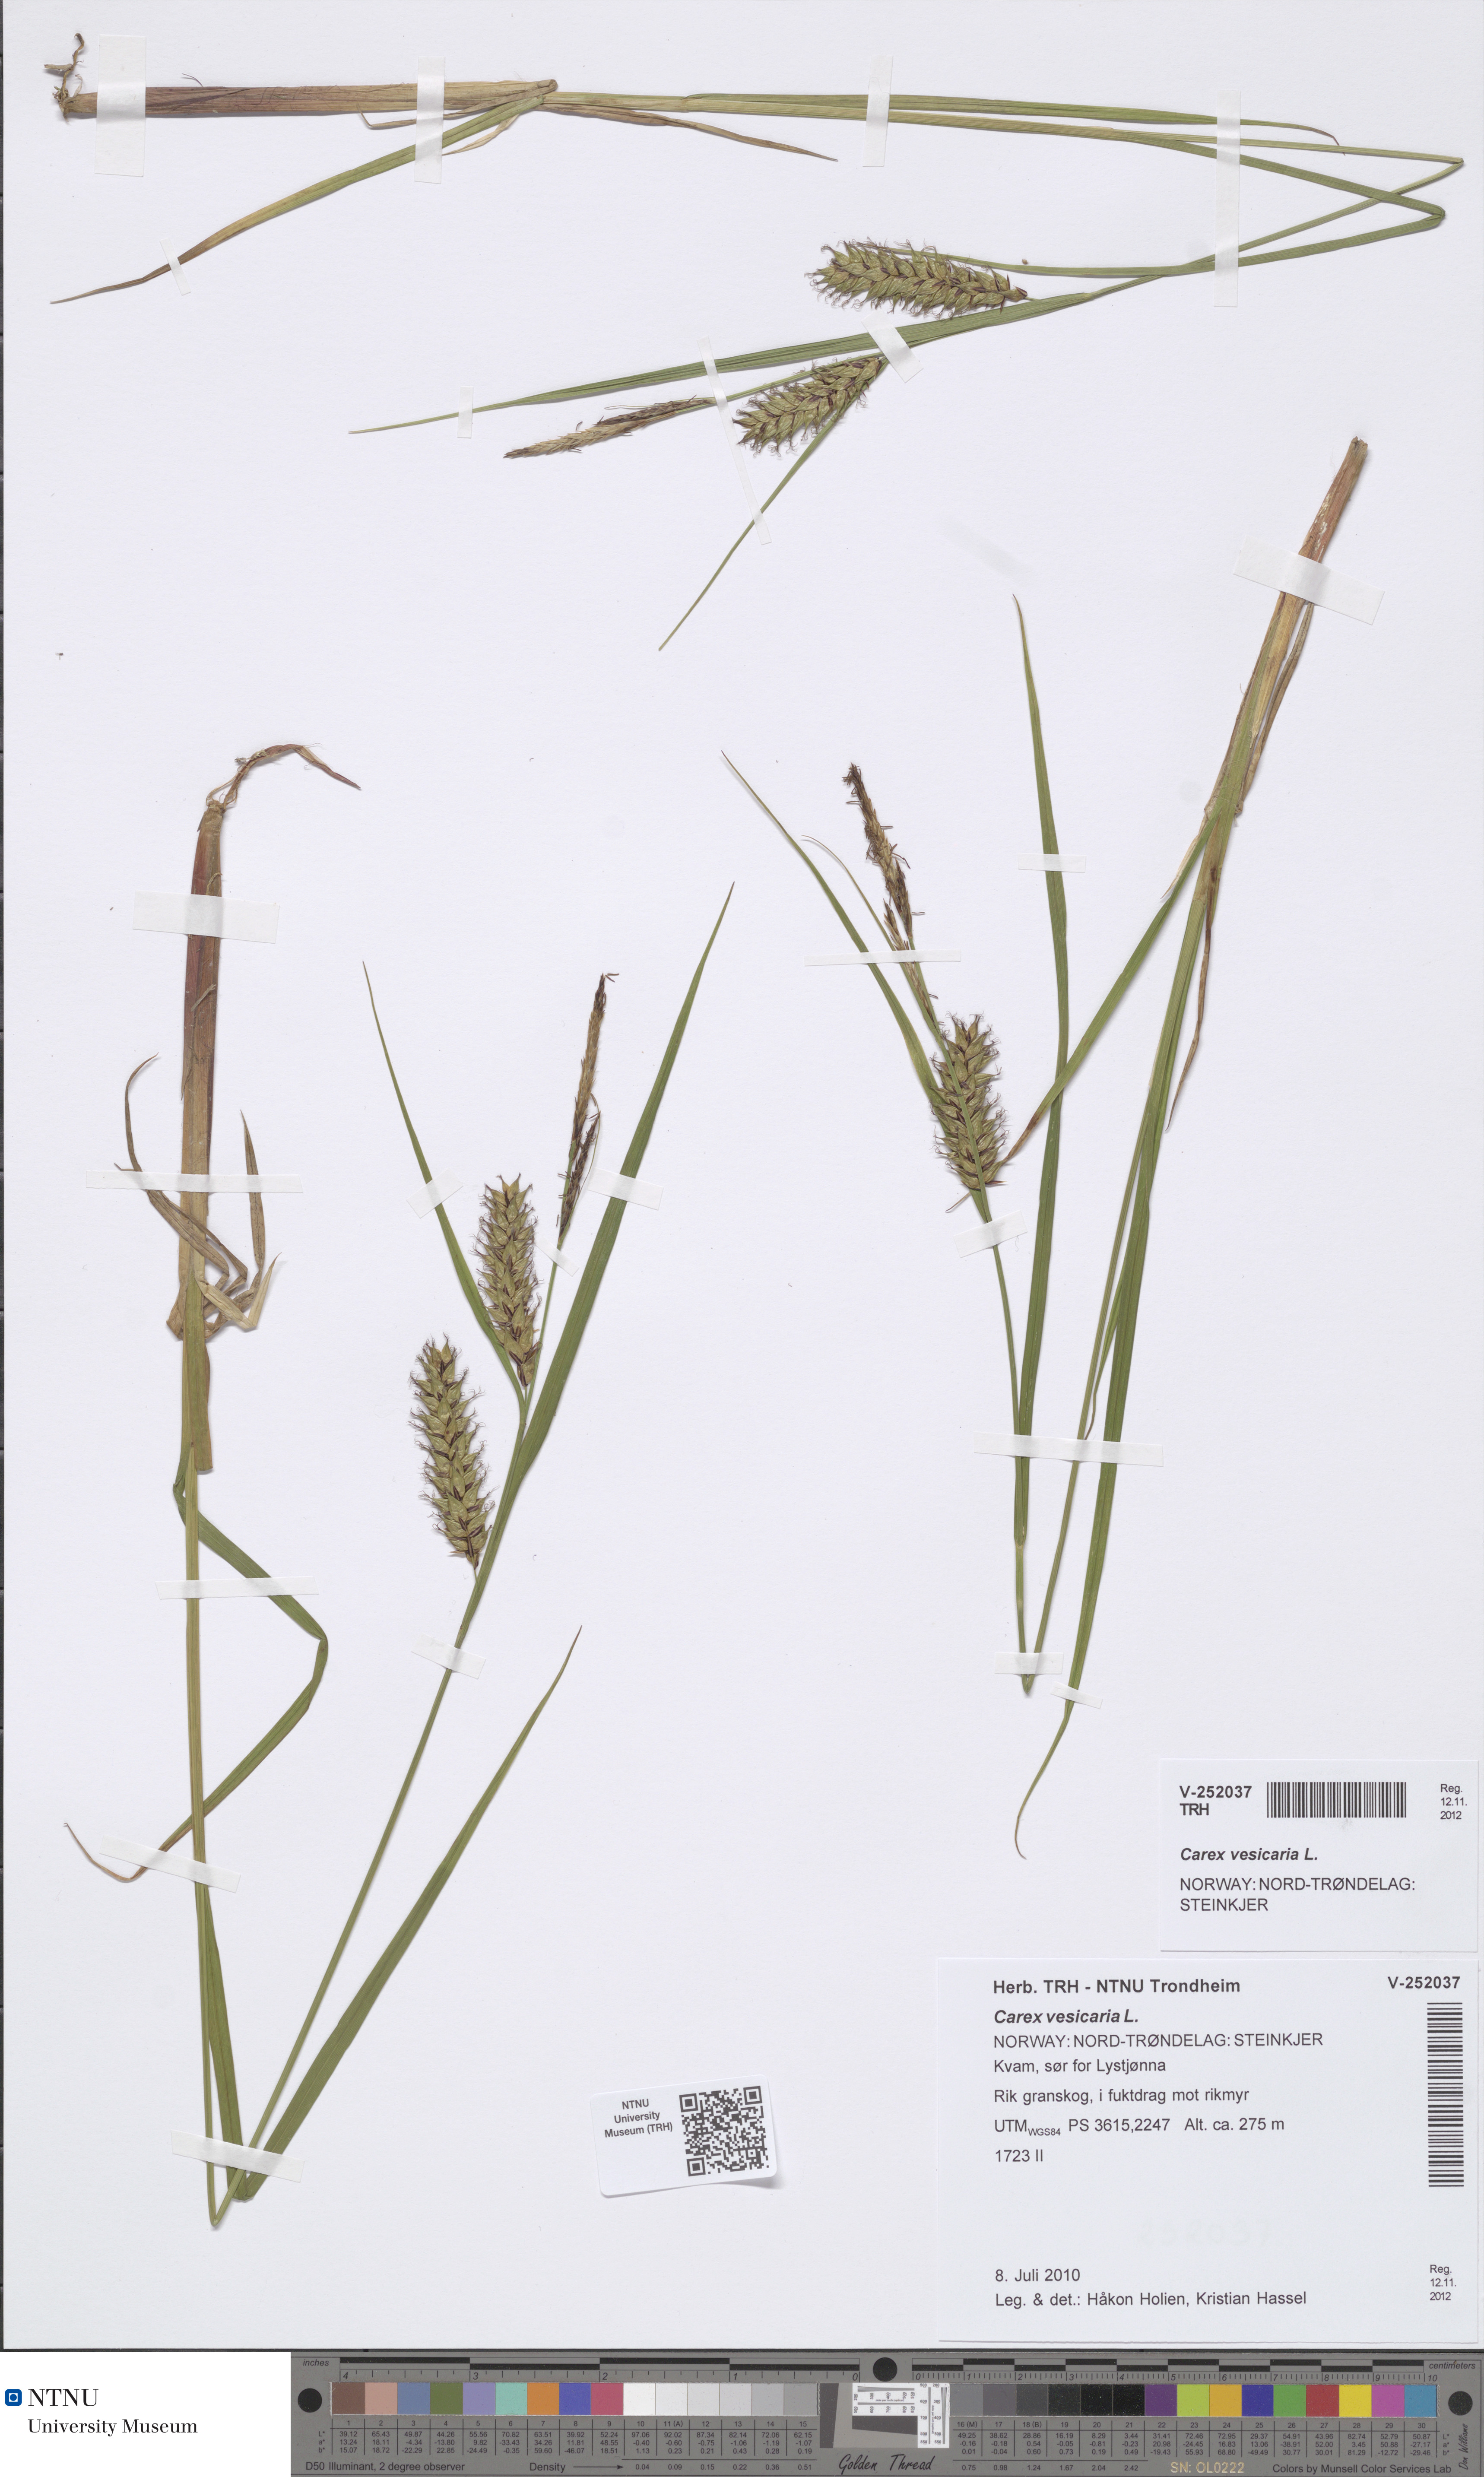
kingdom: Plantae
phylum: Tracheophyta
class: Liliopsida
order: Poales
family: Cyperaceae
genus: Carex
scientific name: Carex vesicaria
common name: Bladder-sedge
